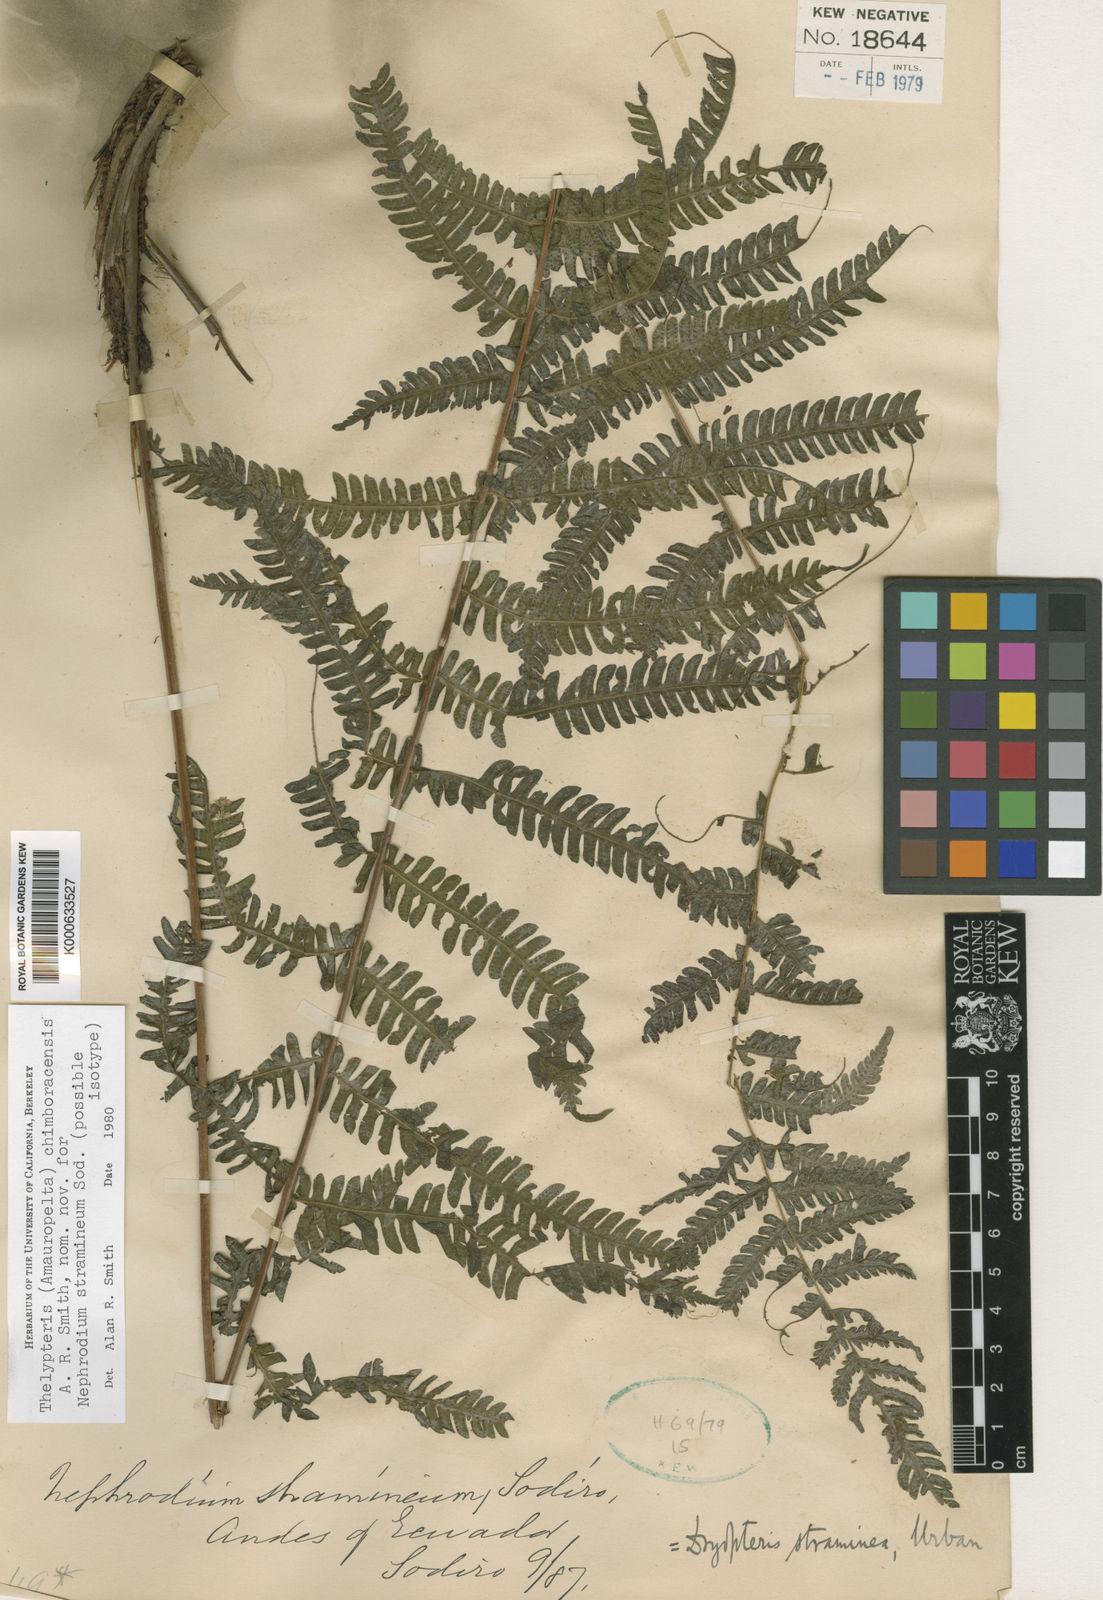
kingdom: Plantae
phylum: Tracheophyta
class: Polypodiopsida
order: Polypodiales
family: Thelypteridaceae
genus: Amauropelta
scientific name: Amauropelta
